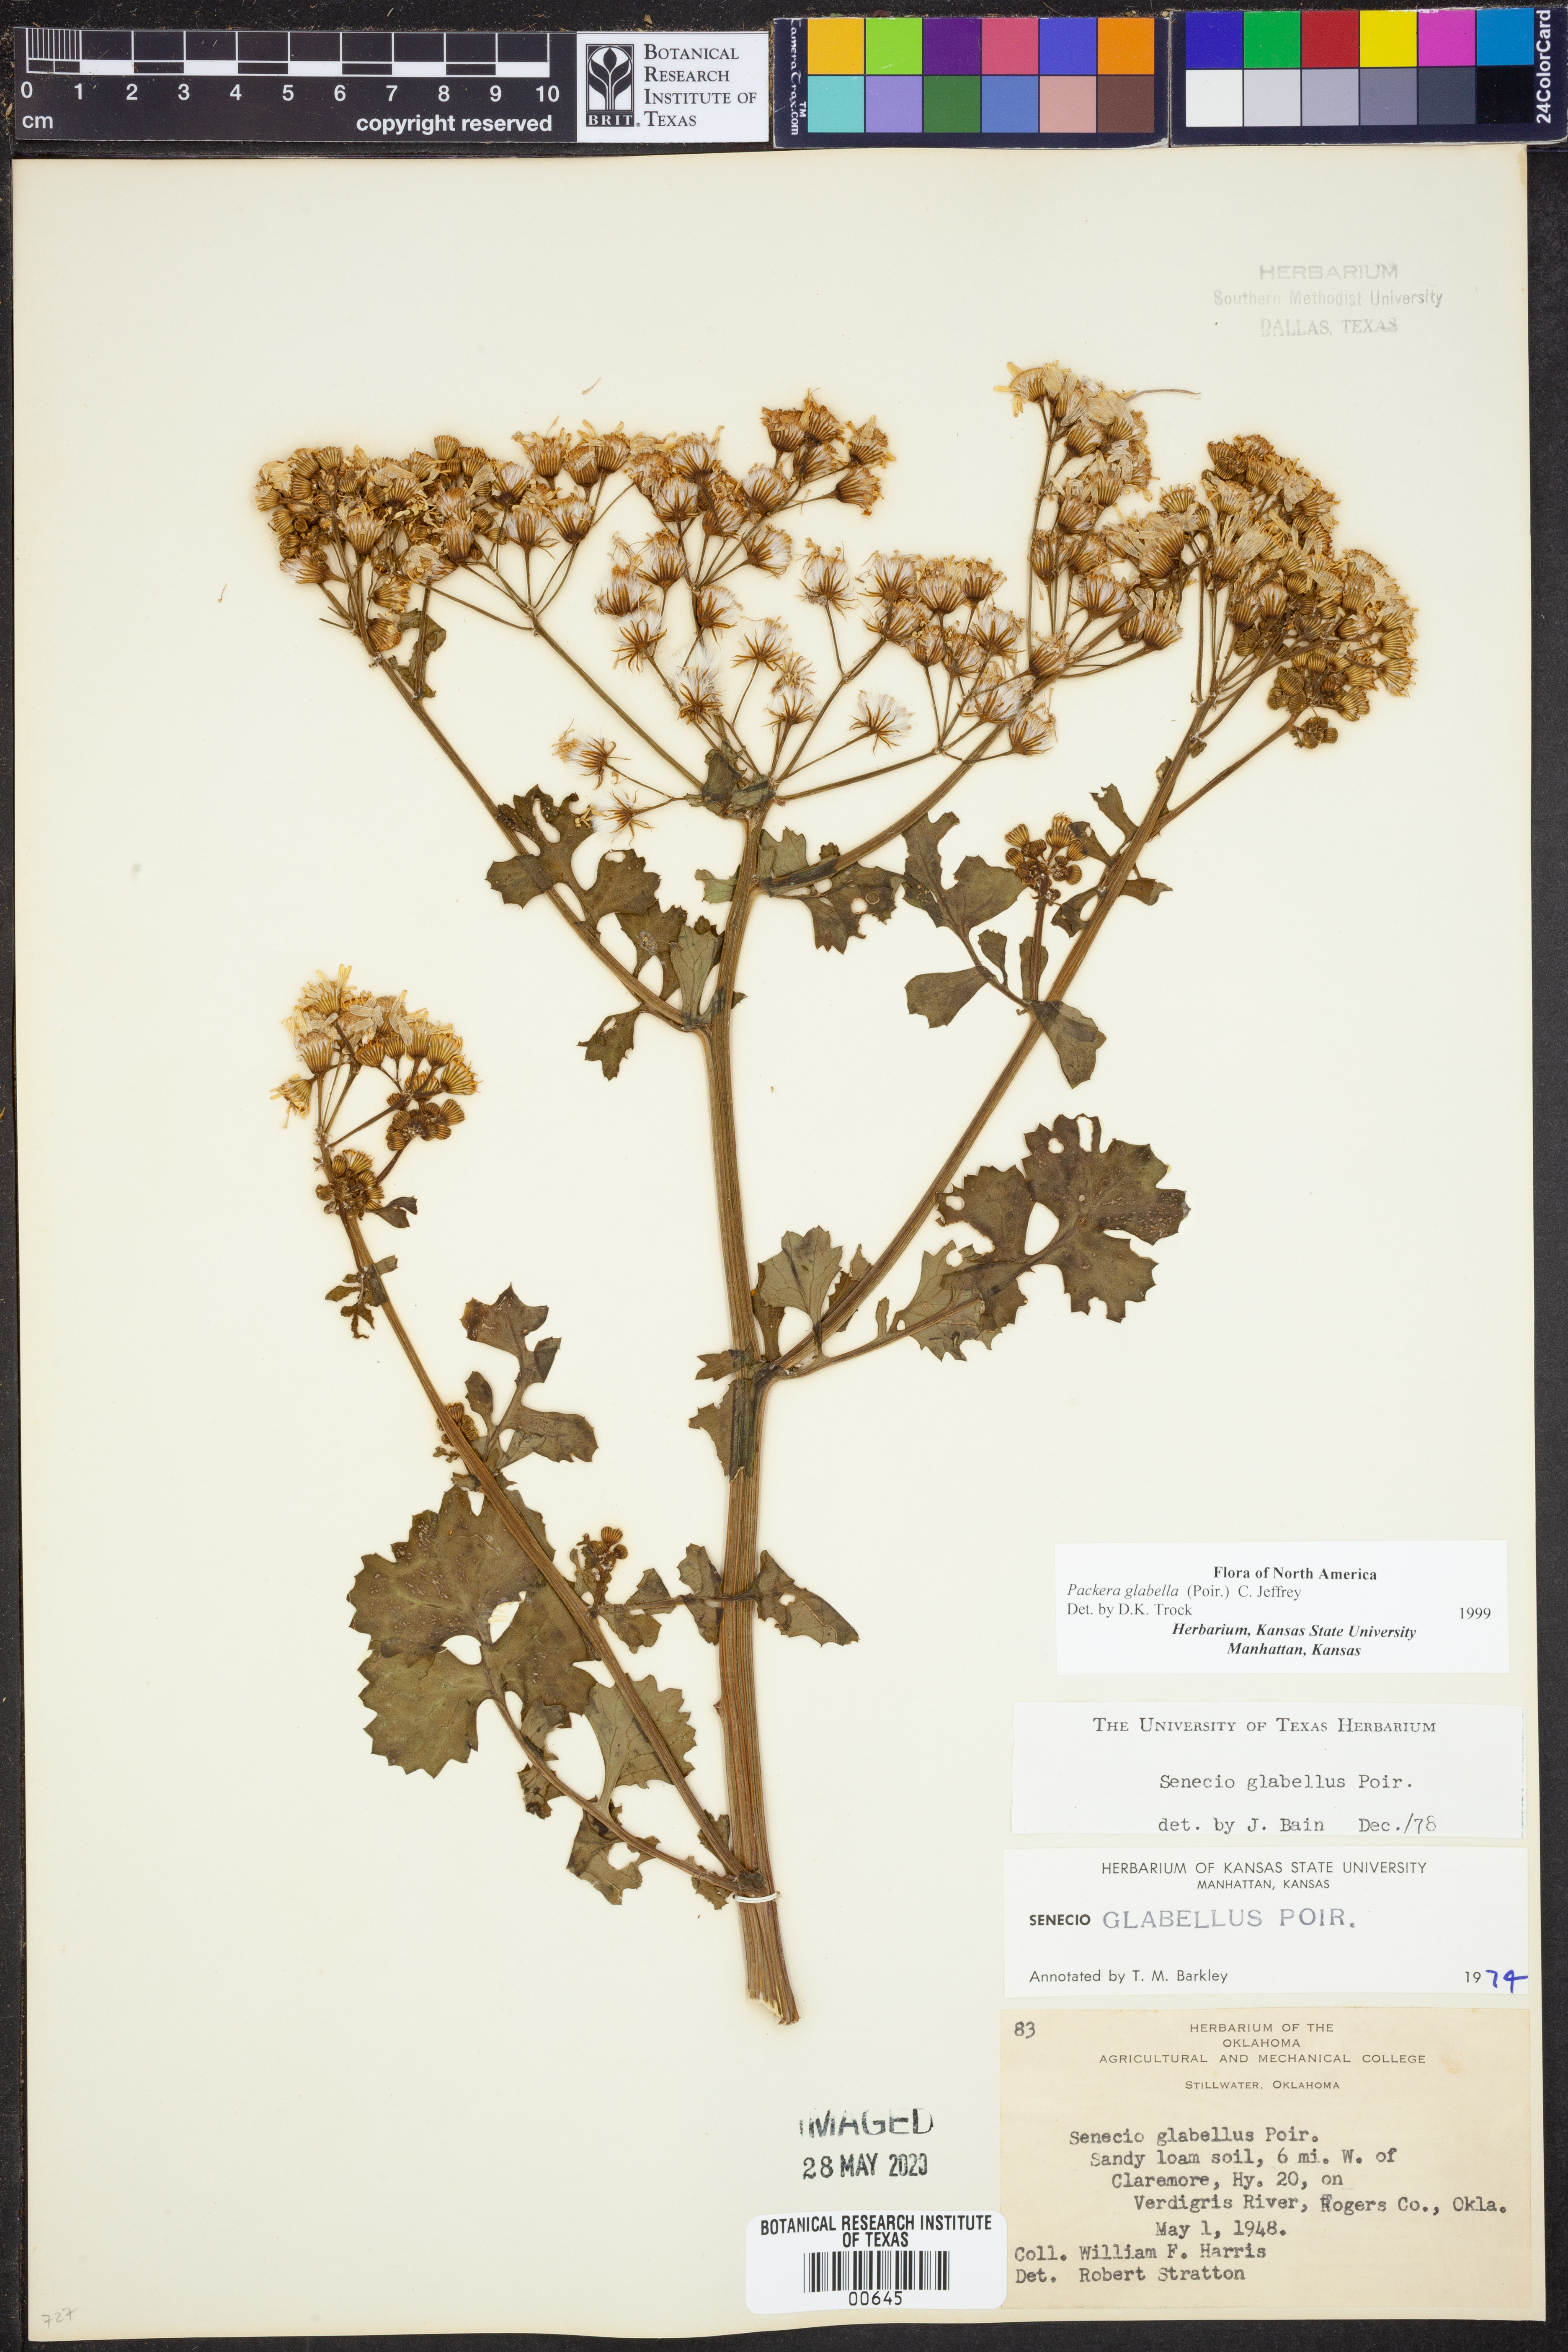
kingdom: Plantae
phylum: Tracheophyta
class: Magnoliopsida
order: Asterales
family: Asteraceae
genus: Packera
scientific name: Packera glabella
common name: Butterweed
